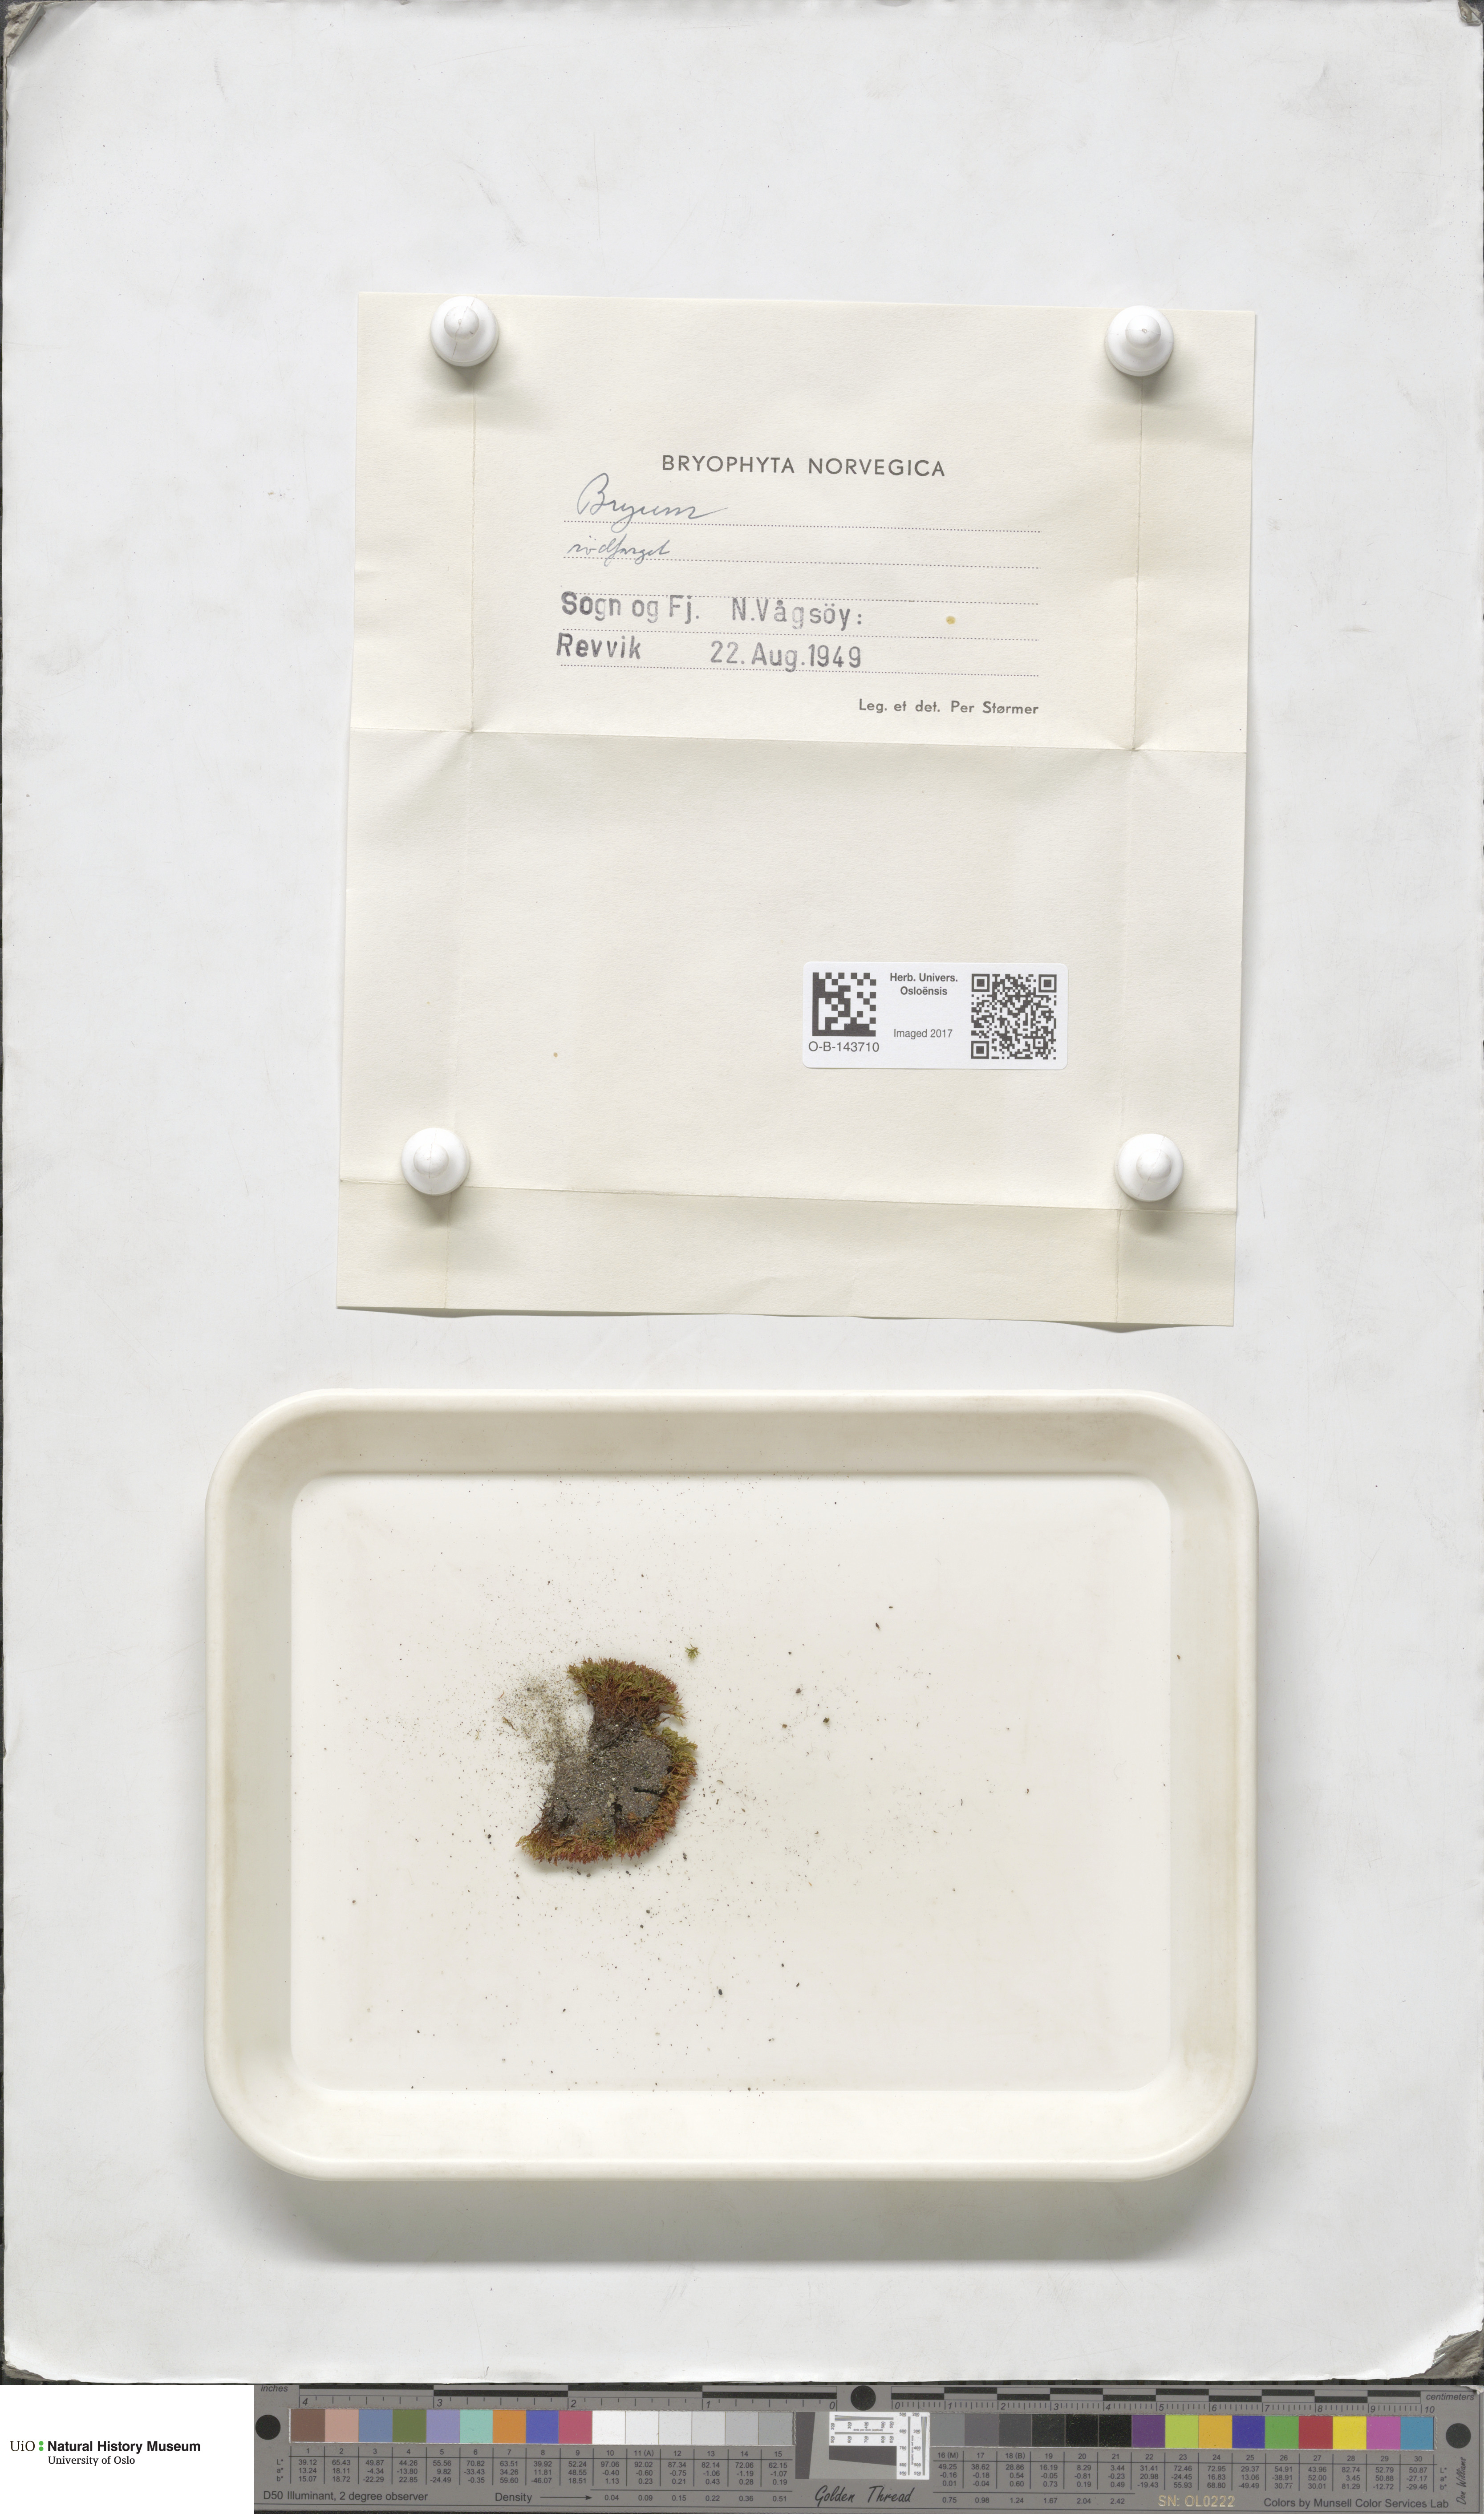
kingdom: Plantae
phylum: Bryophyta
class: Bryopsida
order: Bryales
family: Bryaceae
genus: Bryum
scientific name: Bryum
